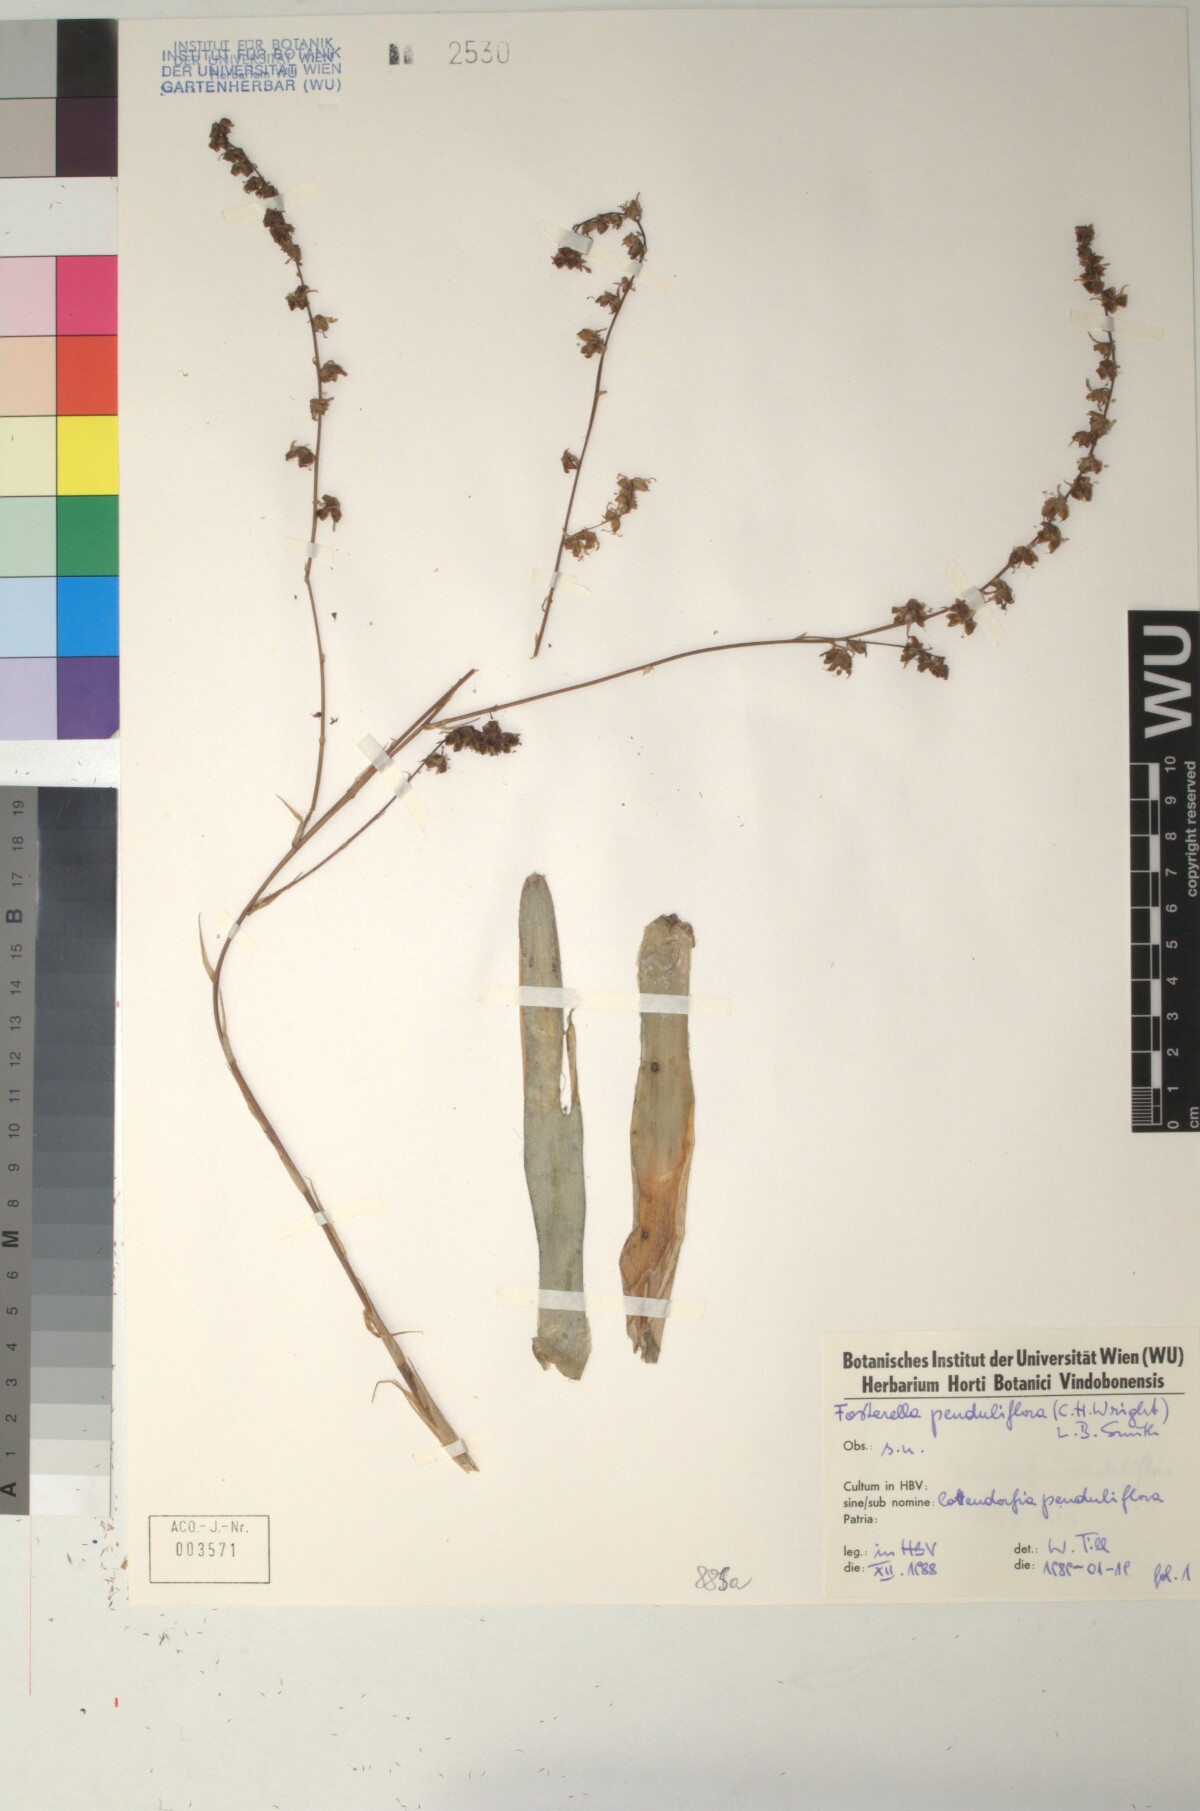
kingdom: Plantae
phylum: Tracheophyta
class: Liliopsida
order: Poales
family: Bromeliaceae
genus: Fosterella
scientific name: Fosterella penduliflora
